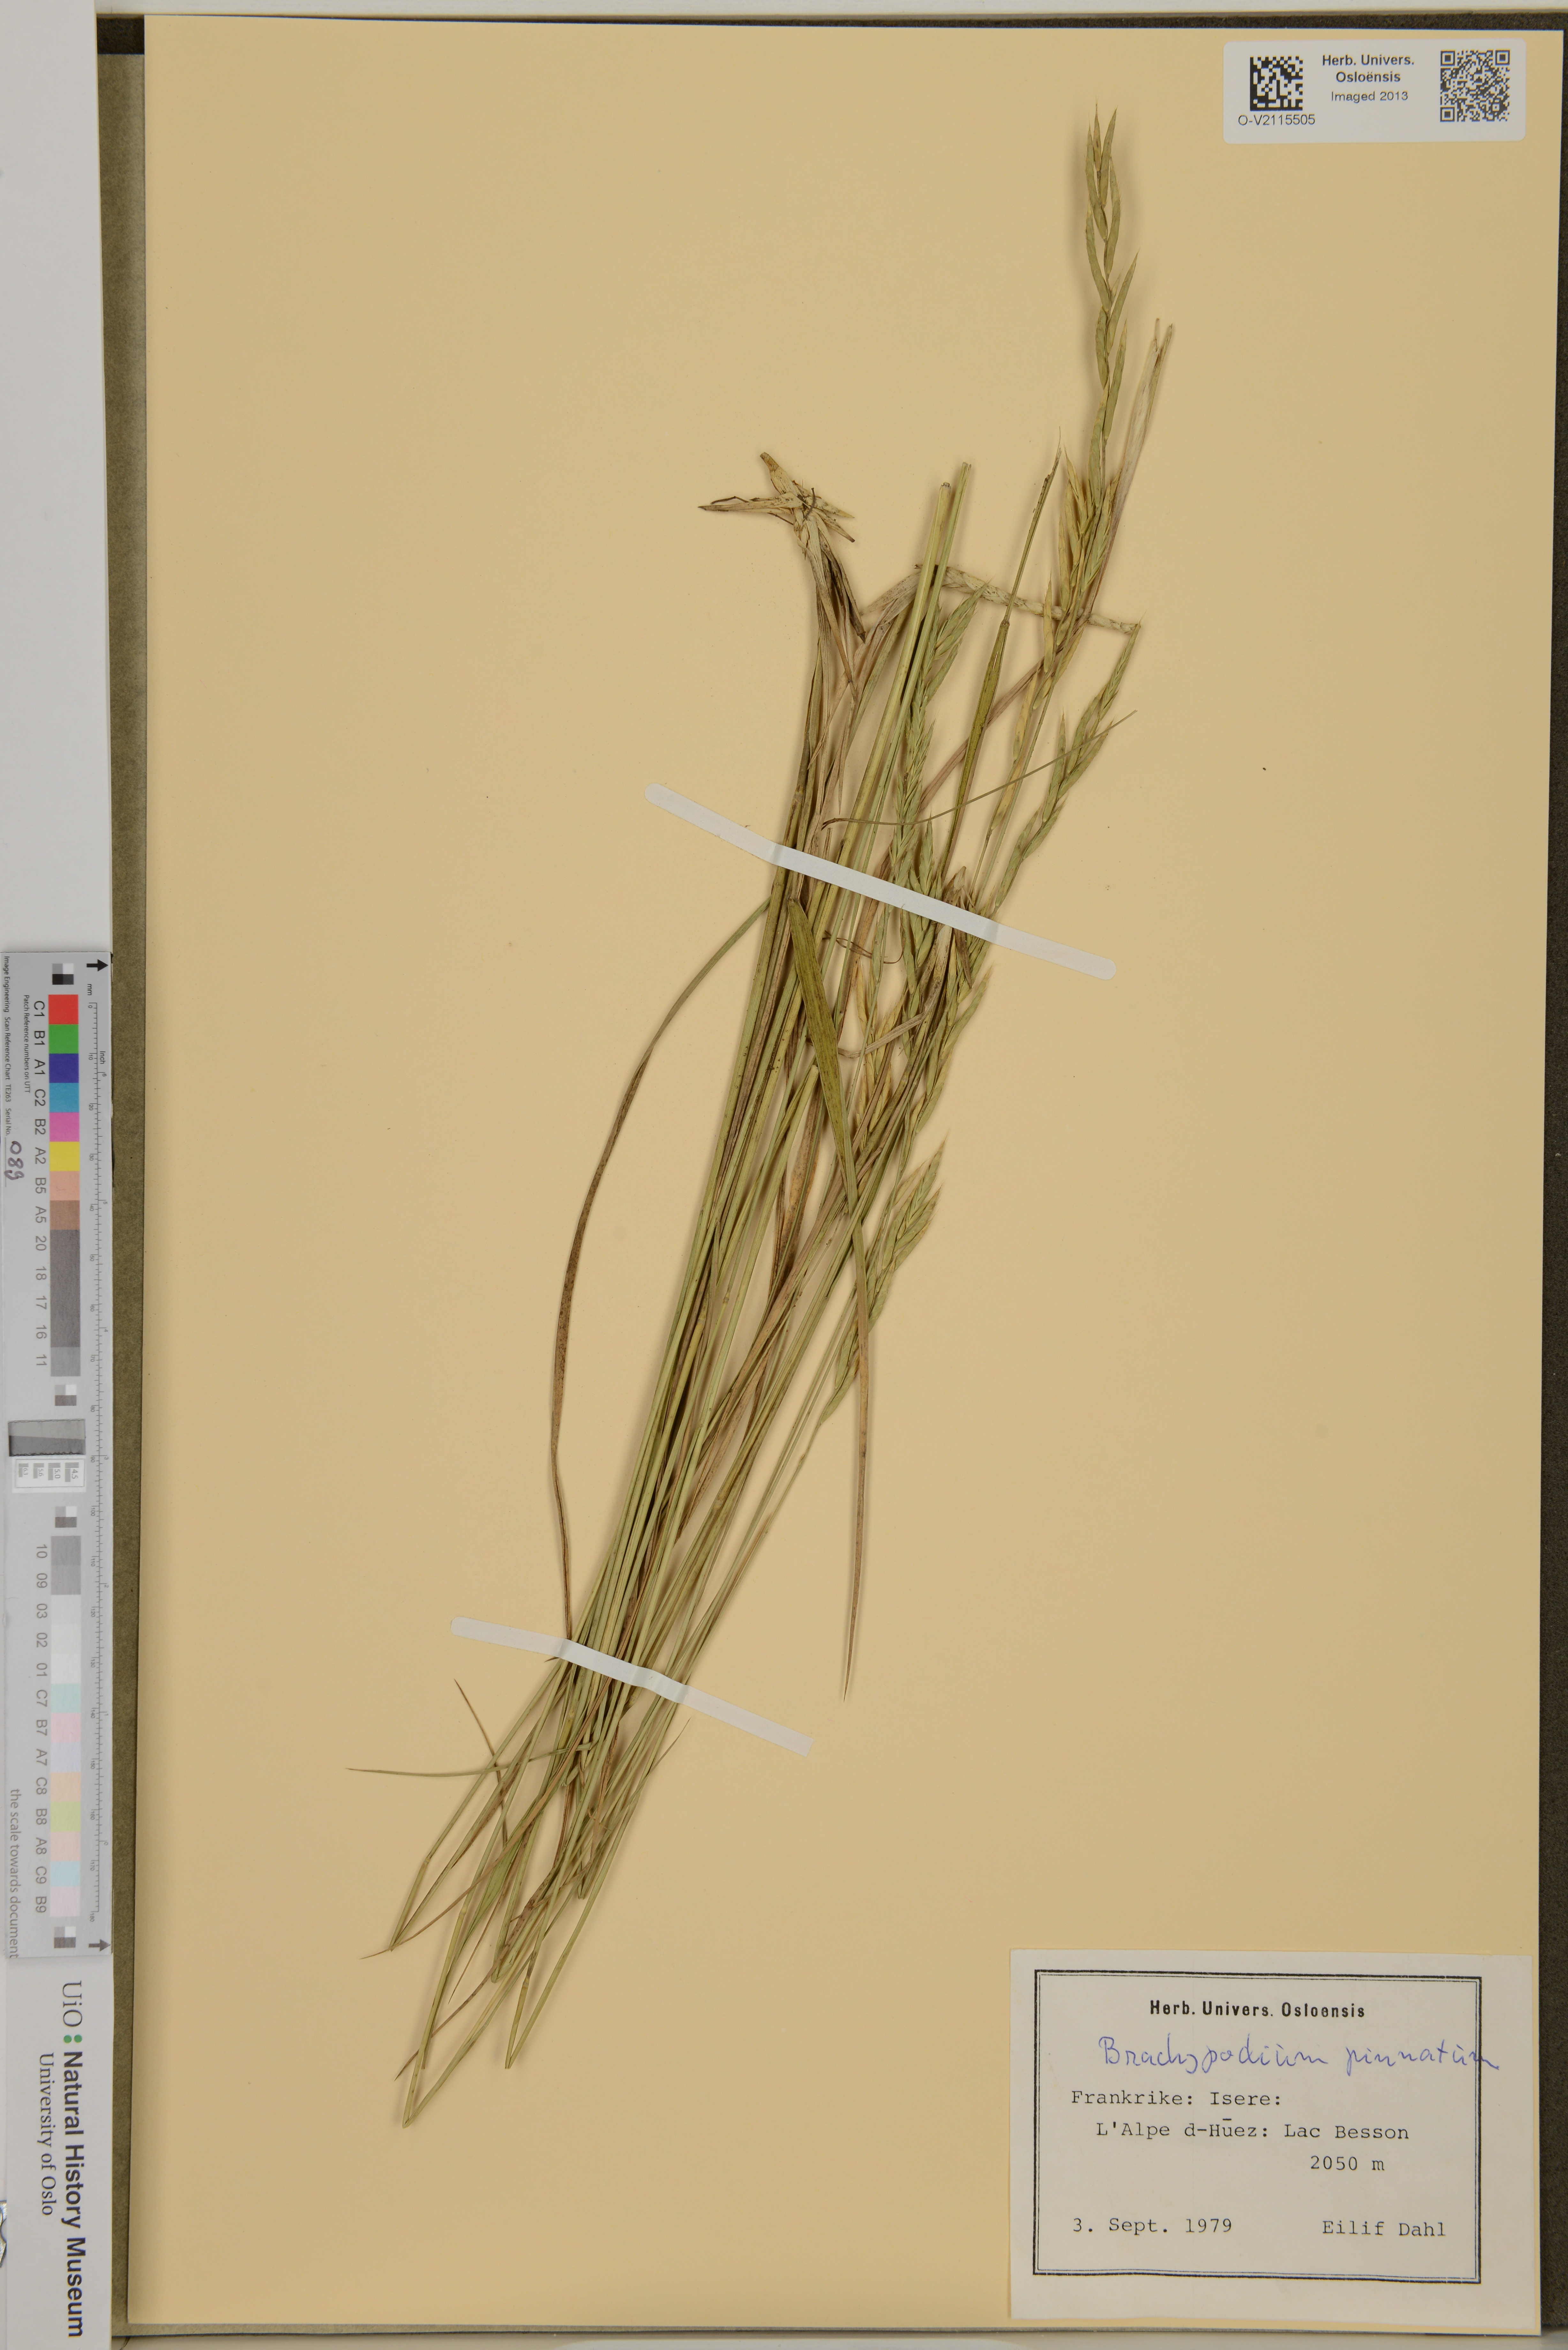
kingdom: Plantae
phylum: Tracheophyta
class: Liliopsida
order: Poales
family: Poaceae
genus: Brachypodium
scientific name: Brachypodium pinnatum
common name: Tor grass
